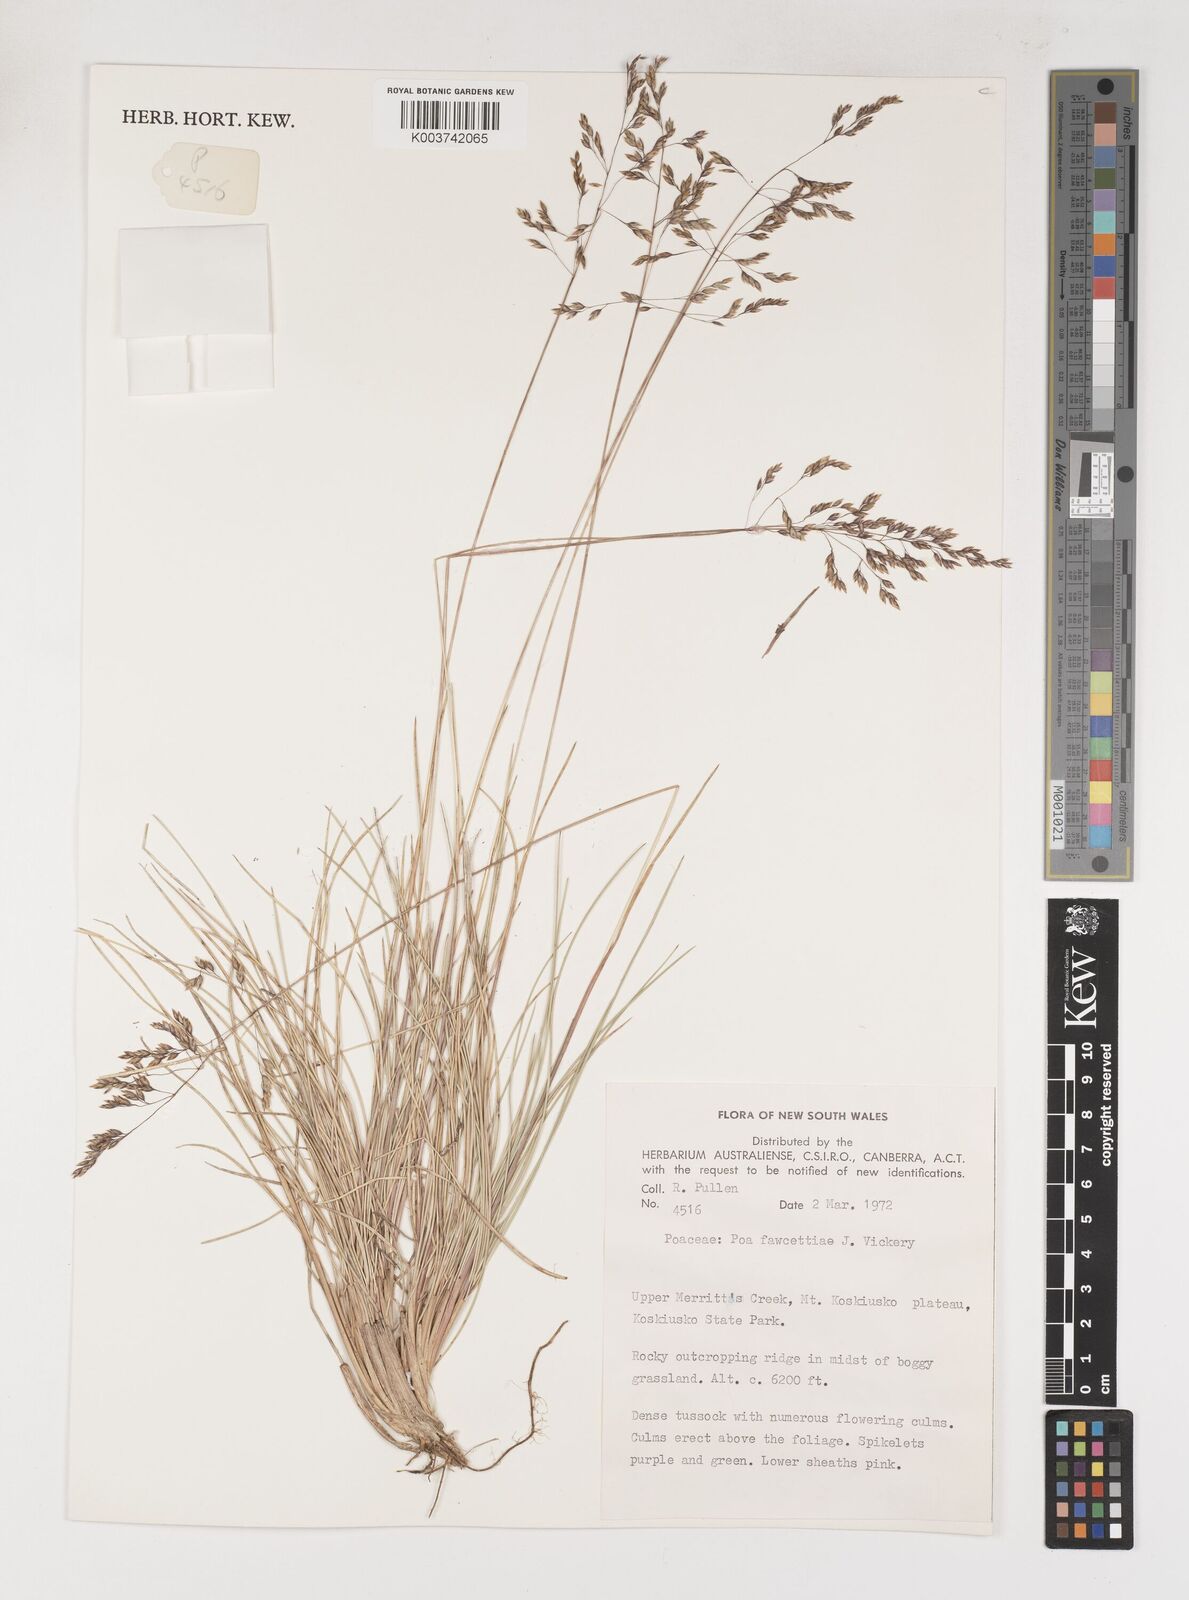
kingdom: Plantae
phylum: Tracheophyta
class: Liliopsida
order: Poales
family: Poaceae
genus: Poa
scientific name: Poa fawcettiae
